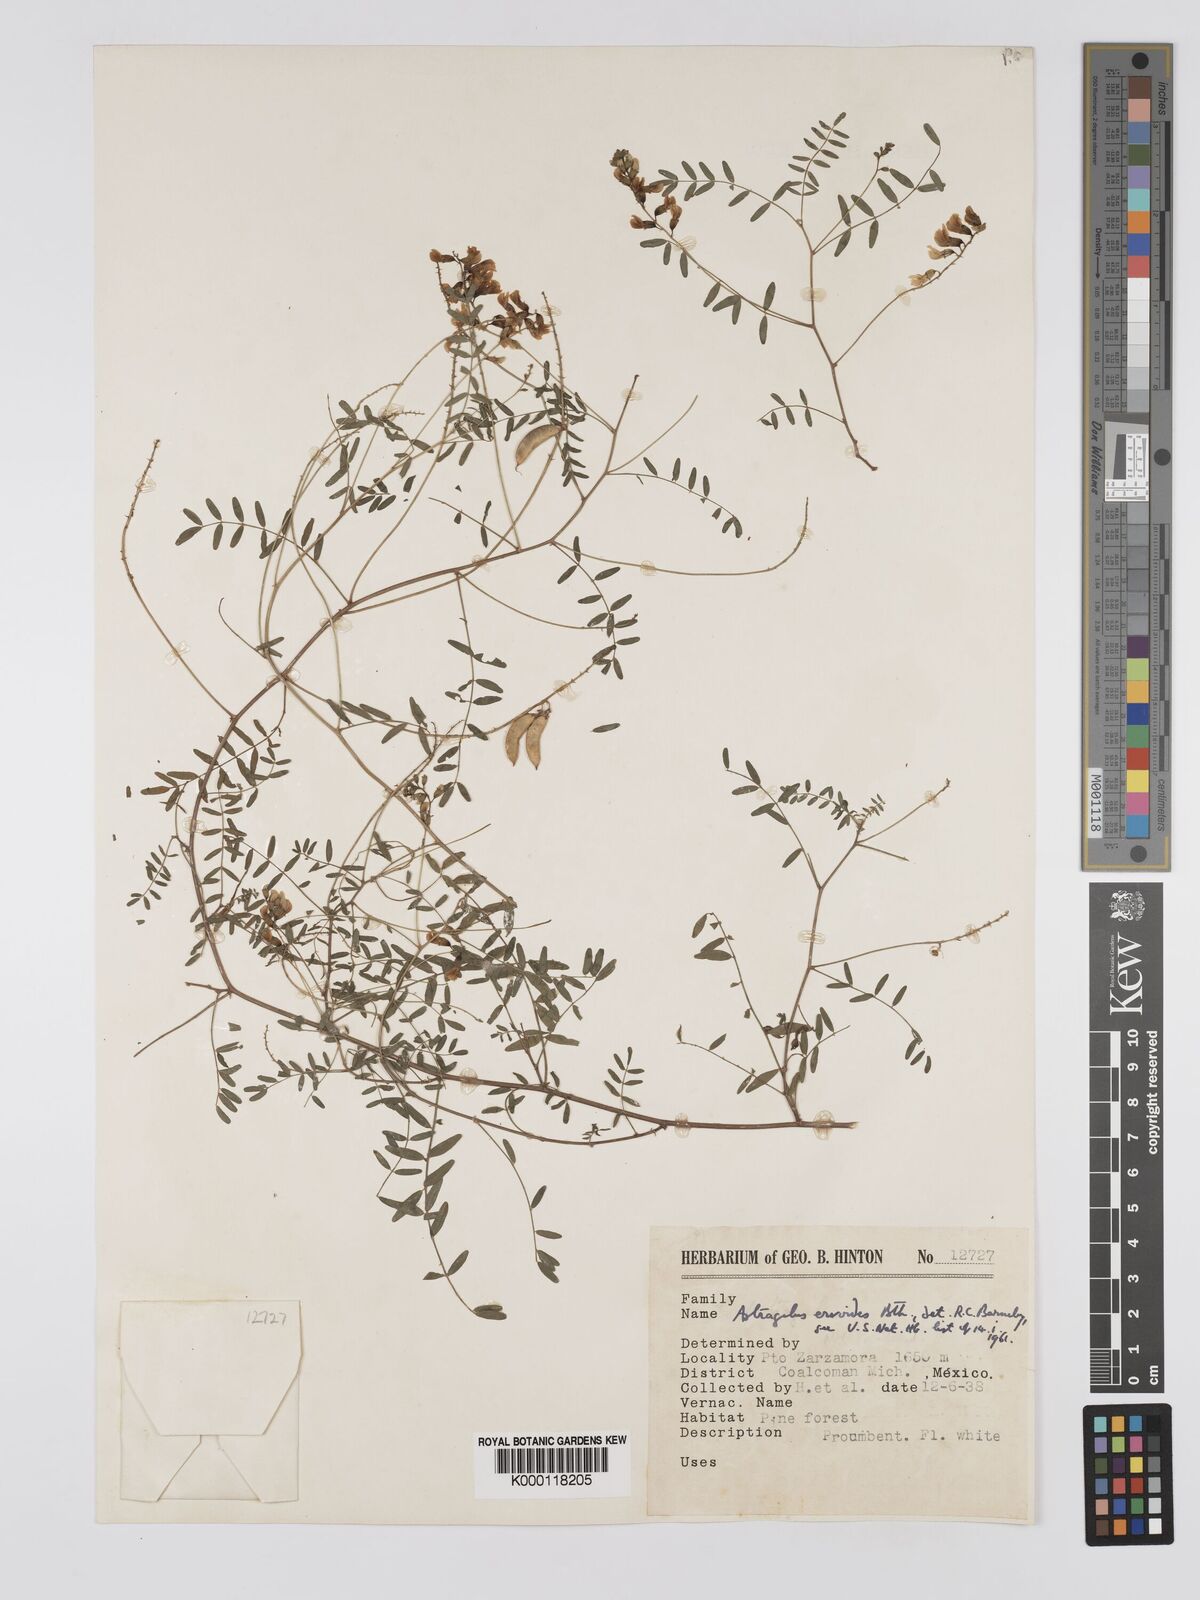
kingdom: Plantae
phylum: Tracheophyta
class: Magnoliopsida
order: Fabales
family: Fabaceae
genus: Astragalus
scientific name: Astragalus ervoides
